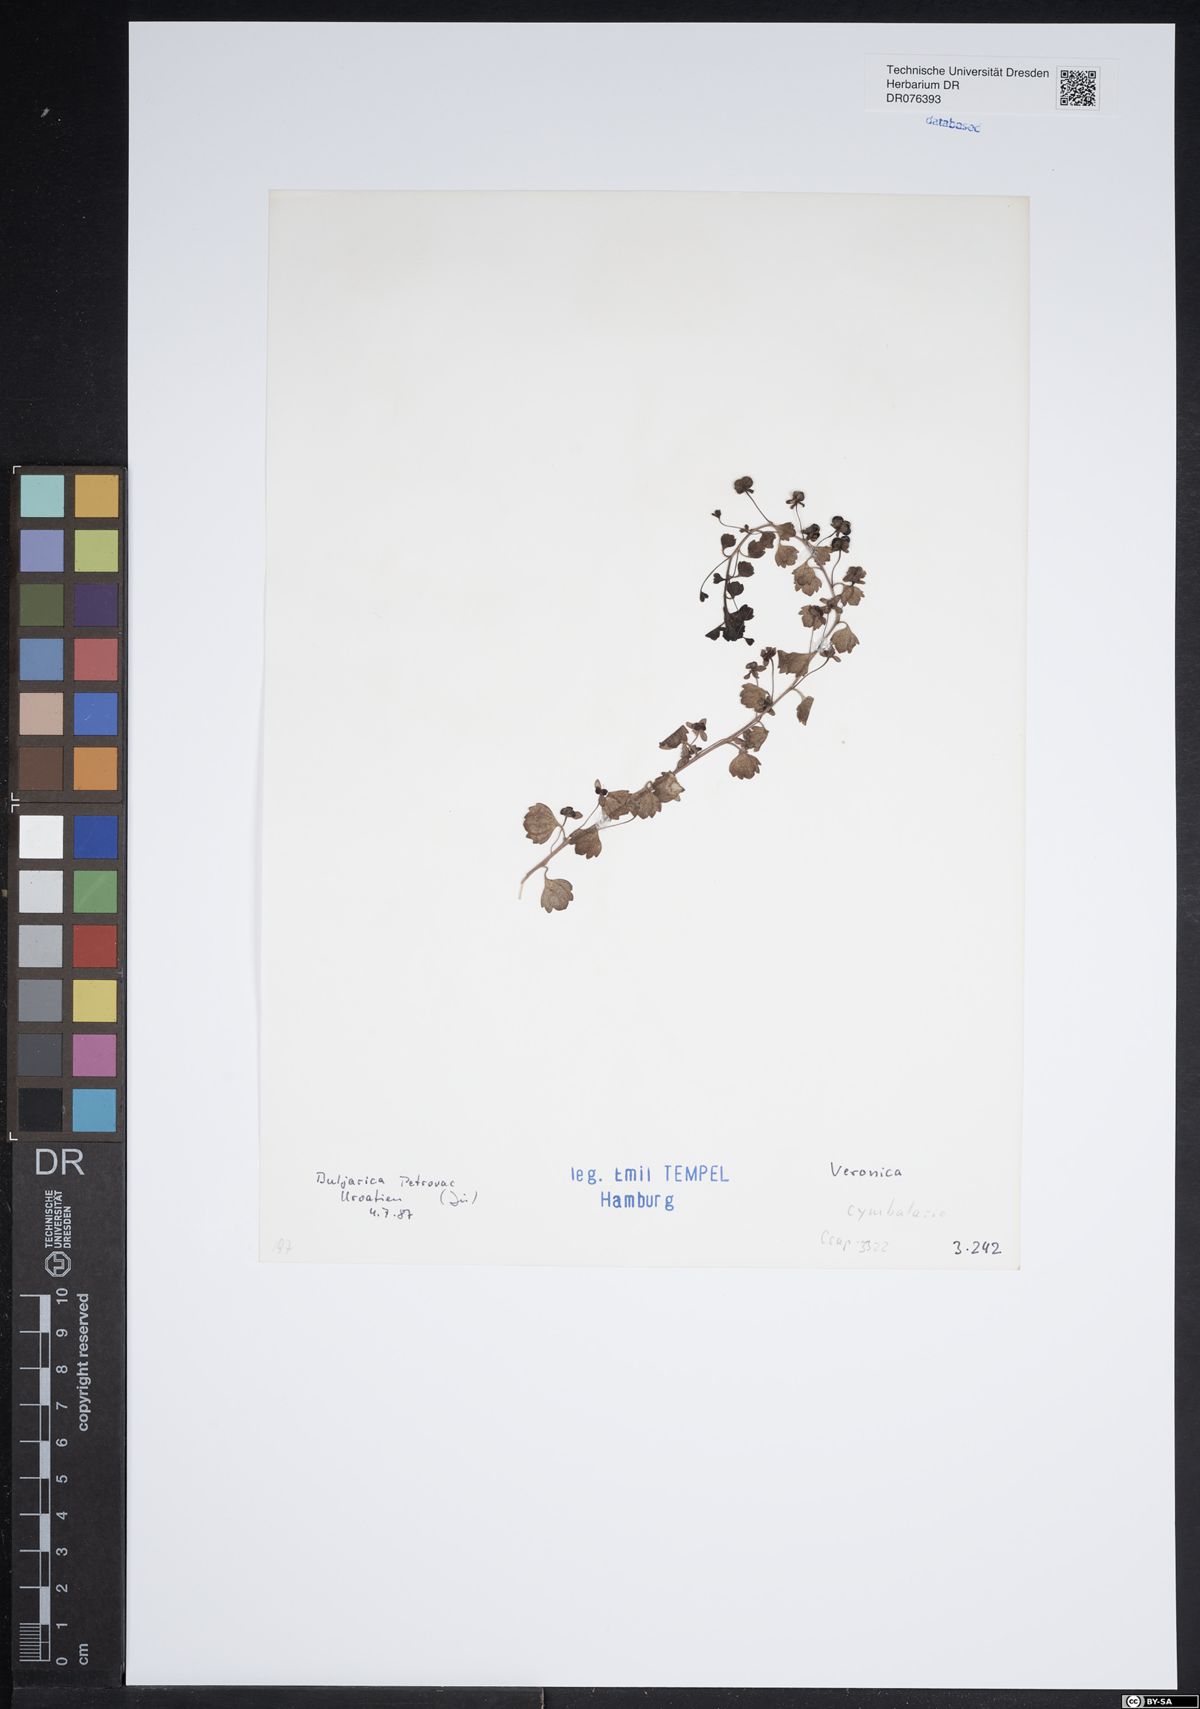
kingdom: Plantae
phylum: Tracheophyta
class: Magnoliopsida
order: Lamiales
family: Plantaginaceae
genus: Veronica
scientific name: Veronica cymbalaria
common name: Pale speedwell
